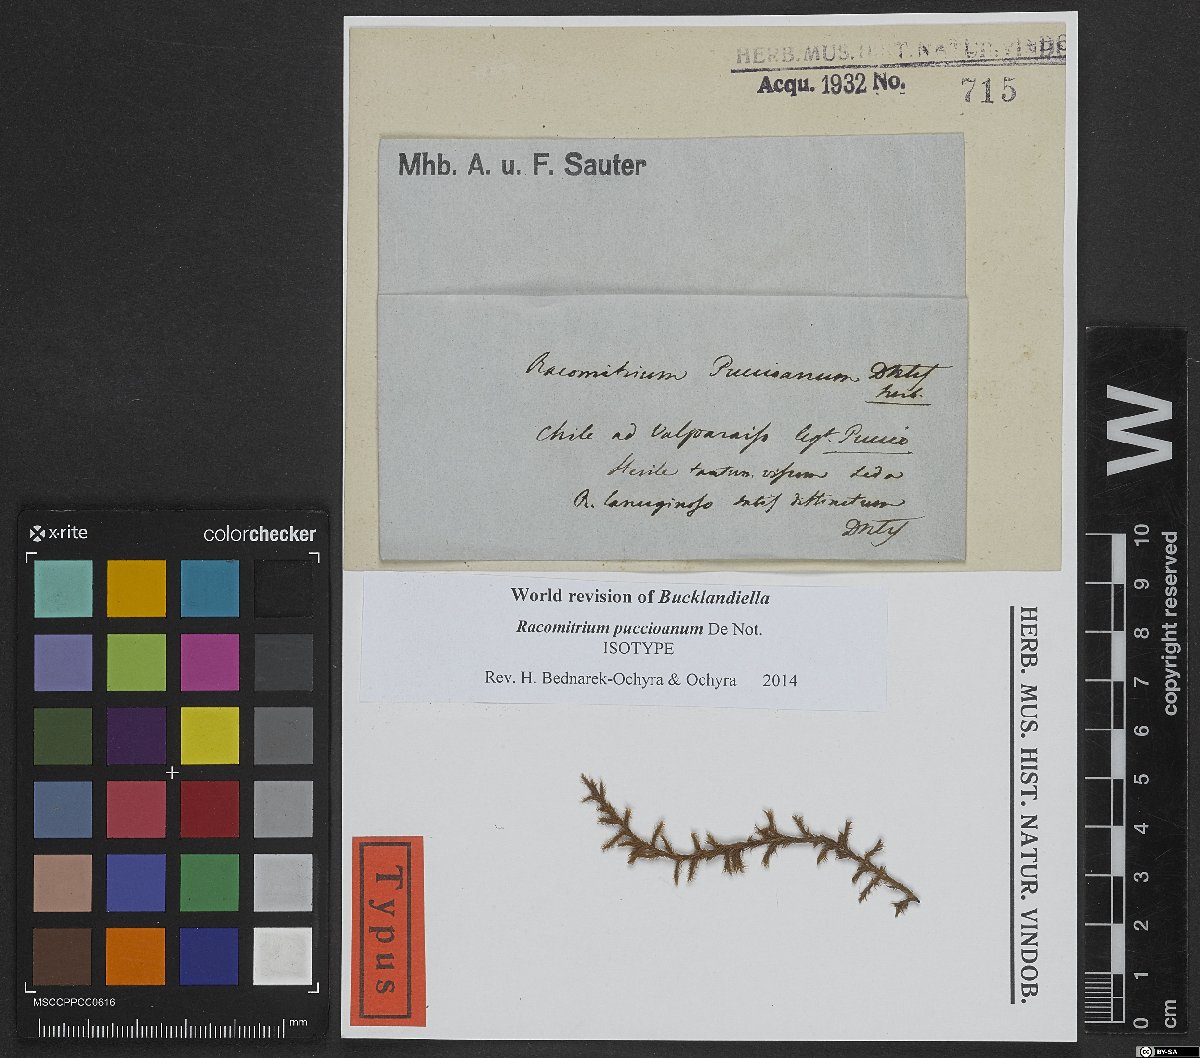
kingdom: Plantae
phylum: Bryophyta
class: Bryopsida
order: Grimmiales
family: Grimmiaceae
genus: Racomitrium
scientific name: Racomitrium lanuginosum
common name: Hoary rock moss
